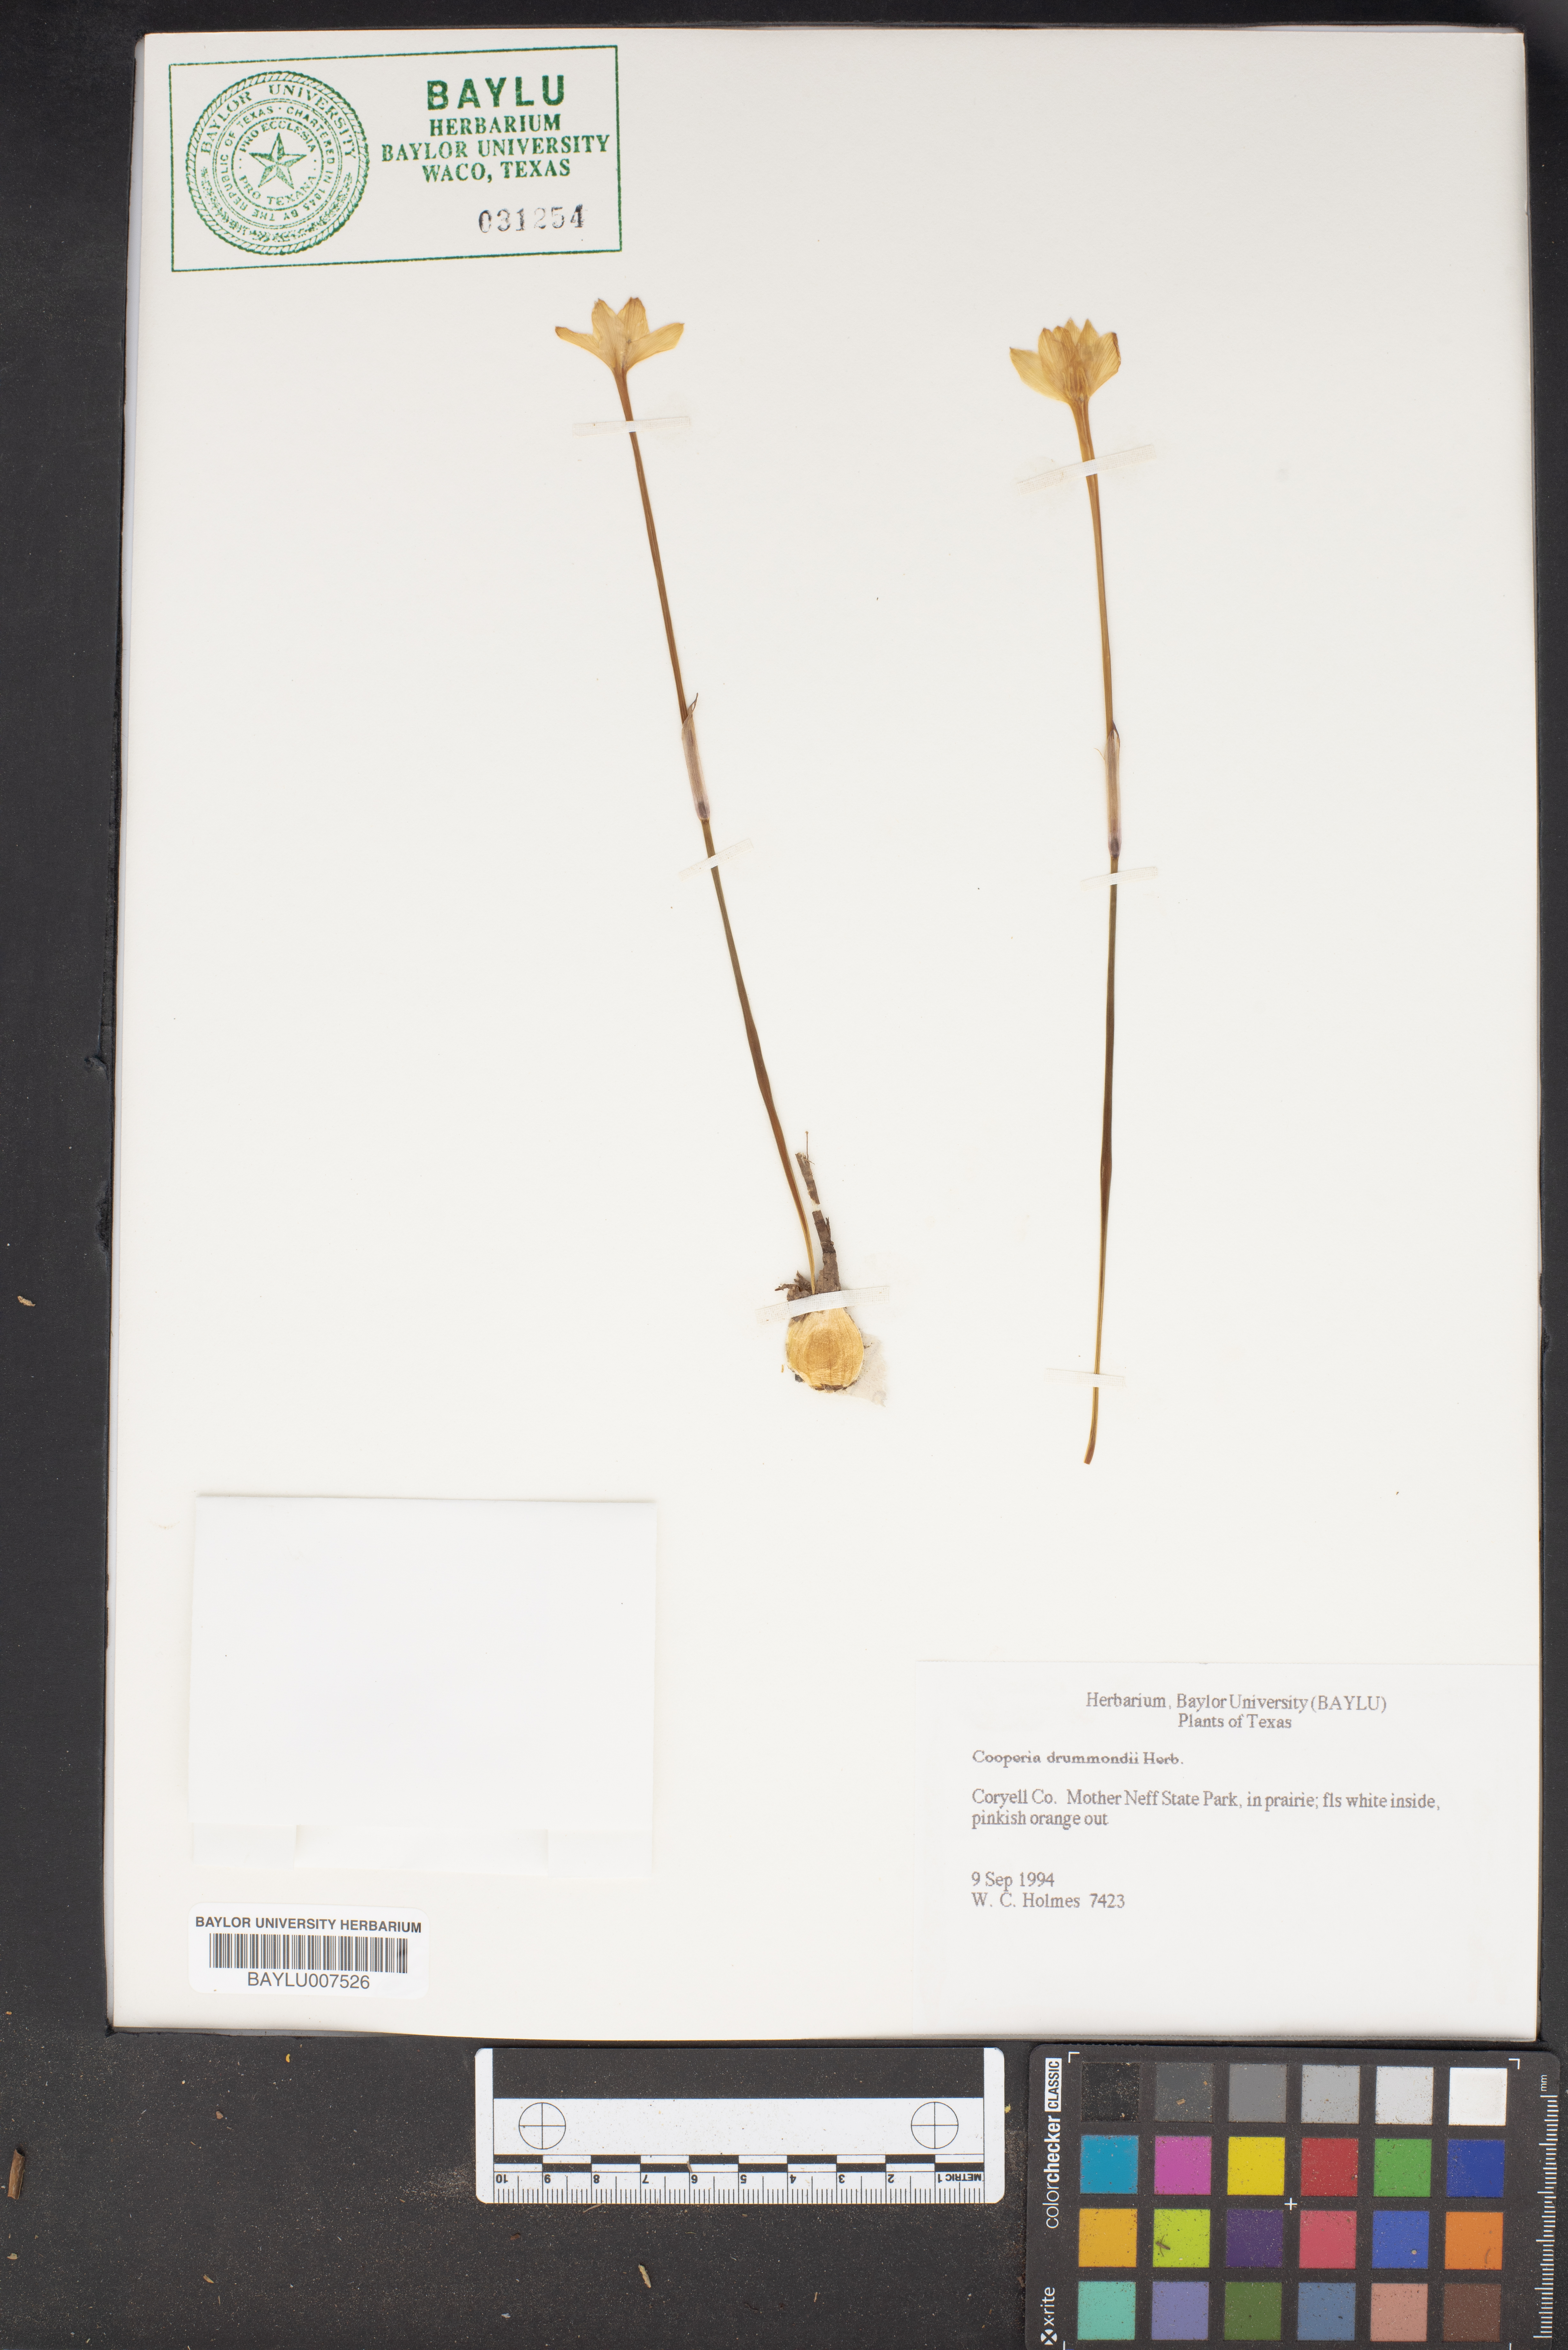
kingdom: Plantae
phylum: Tracheophyta
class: Liliopsida
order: Asparagales
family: Amaryllidaceae
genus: Zephyranthes
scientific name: Zephyranthes chlorosolen
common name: Evening rain-lily
